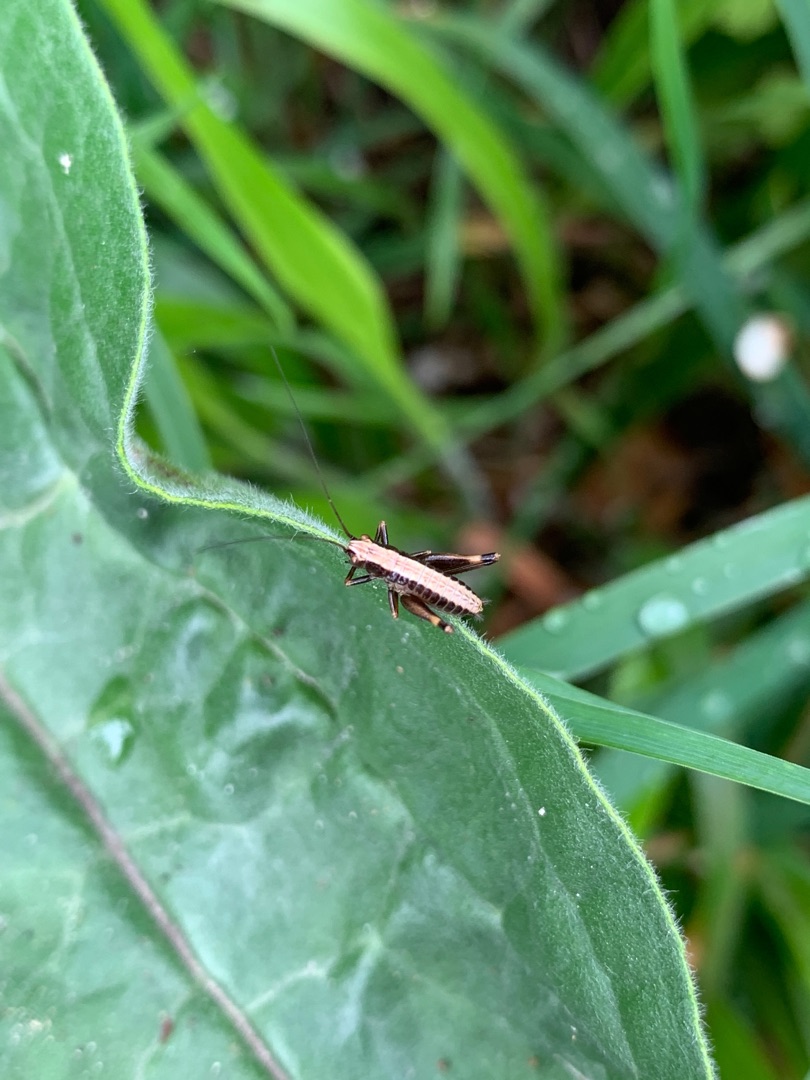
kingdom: Animalia
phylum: Arthropoda
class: Insecta
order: Orthoptera
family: Tettigoniidae
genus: Pholidoptera
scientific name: Pholidoptera griseoaptera
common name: Buskgræshoppe
